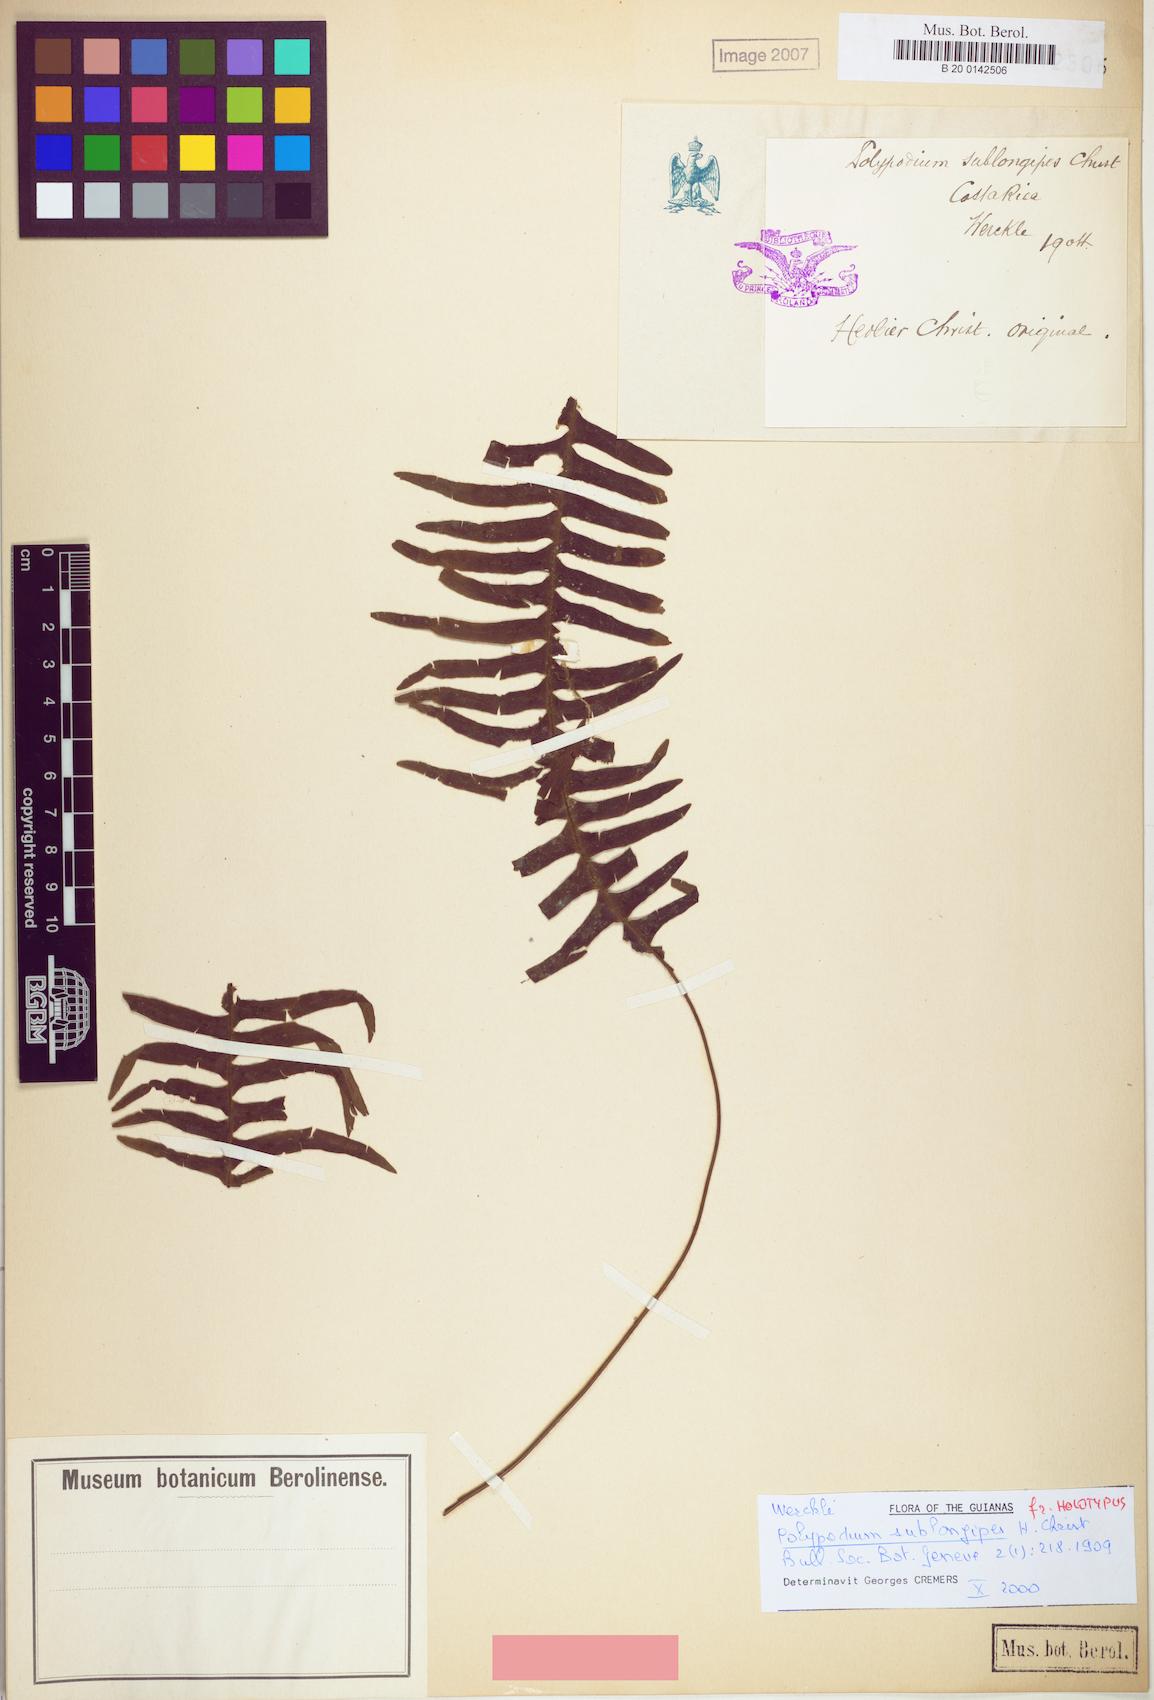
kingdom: Plantae
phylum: Tracheophyta
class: Polypodiopsida
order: Polypodiales
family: Polypodiaceae
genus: Terpsichore
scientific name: Terpsichore lehmanniana
